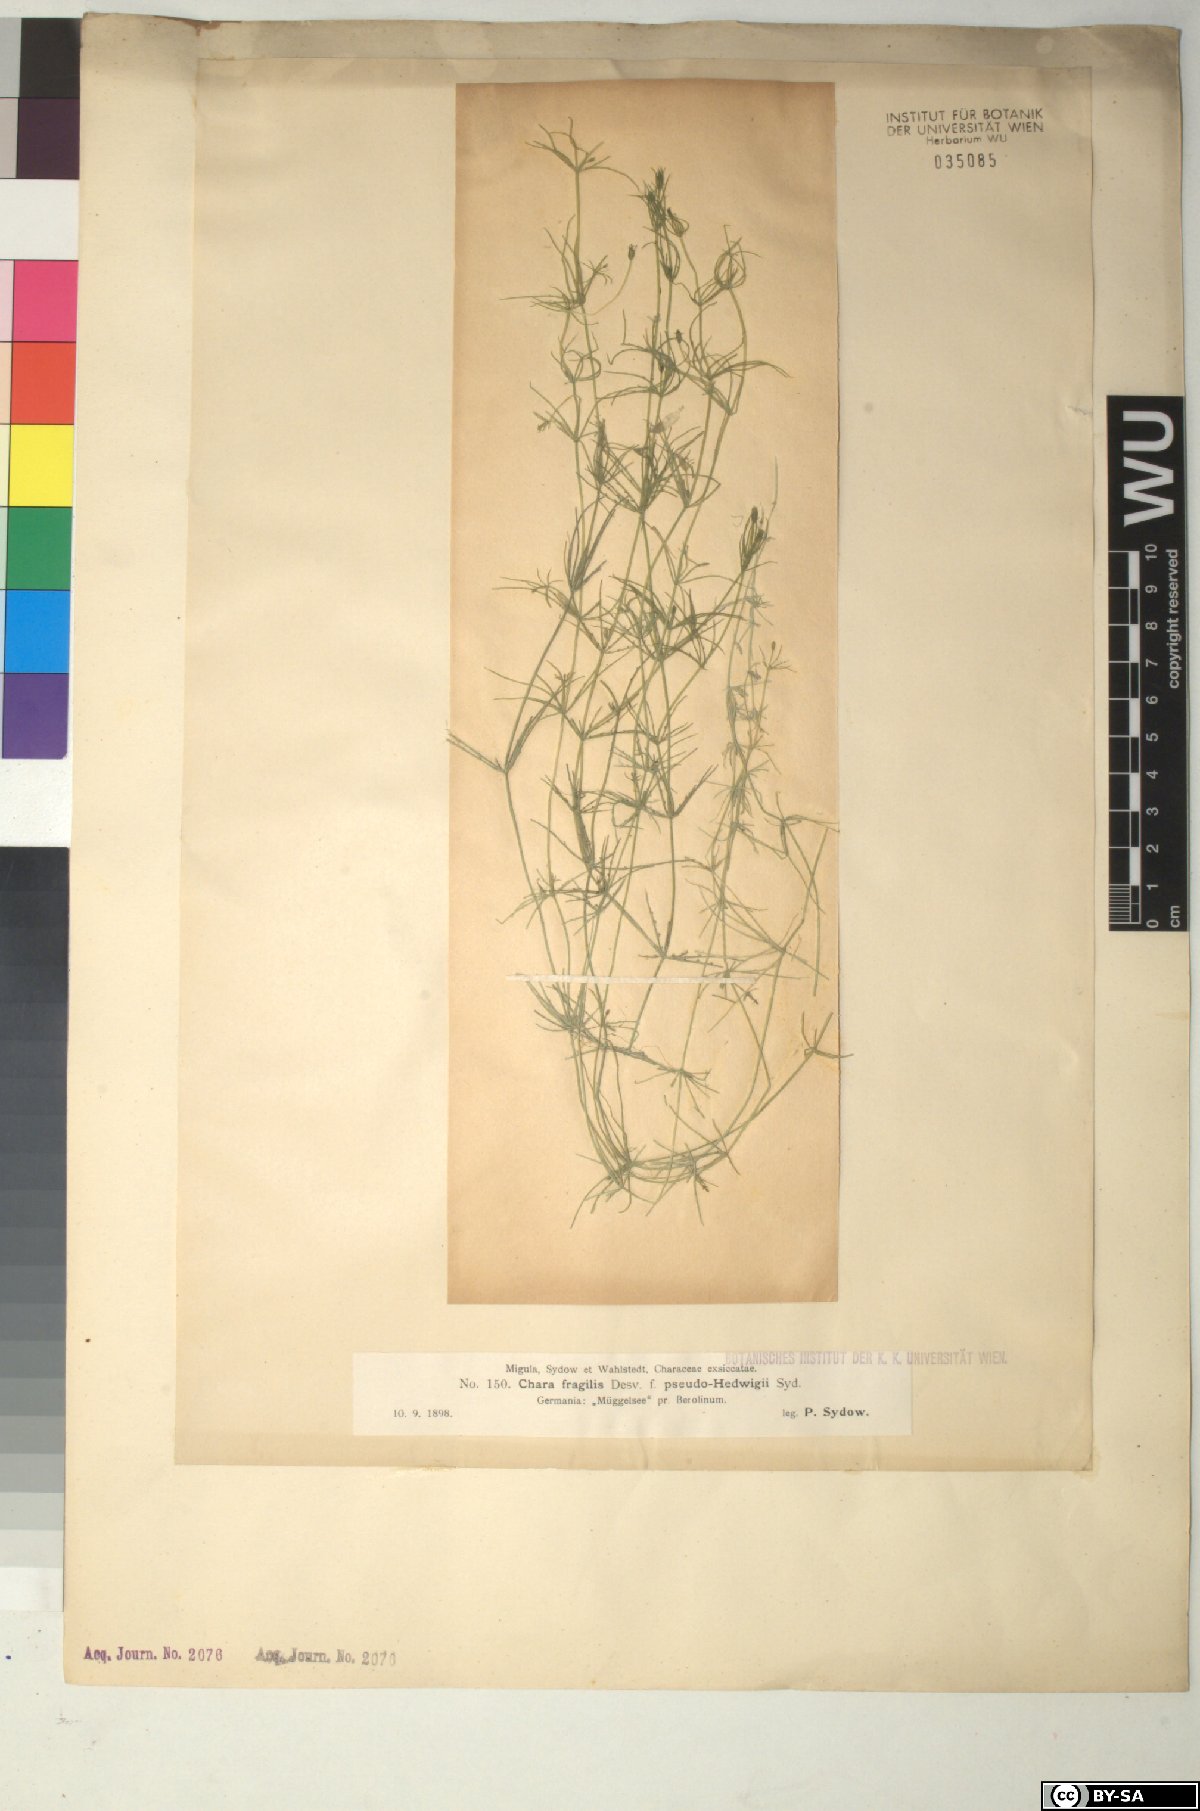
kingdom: Plantae
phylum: Charophyta
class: Charophyceae
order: Charales
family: Characeae
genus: Chara
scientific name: Chara fragilis
